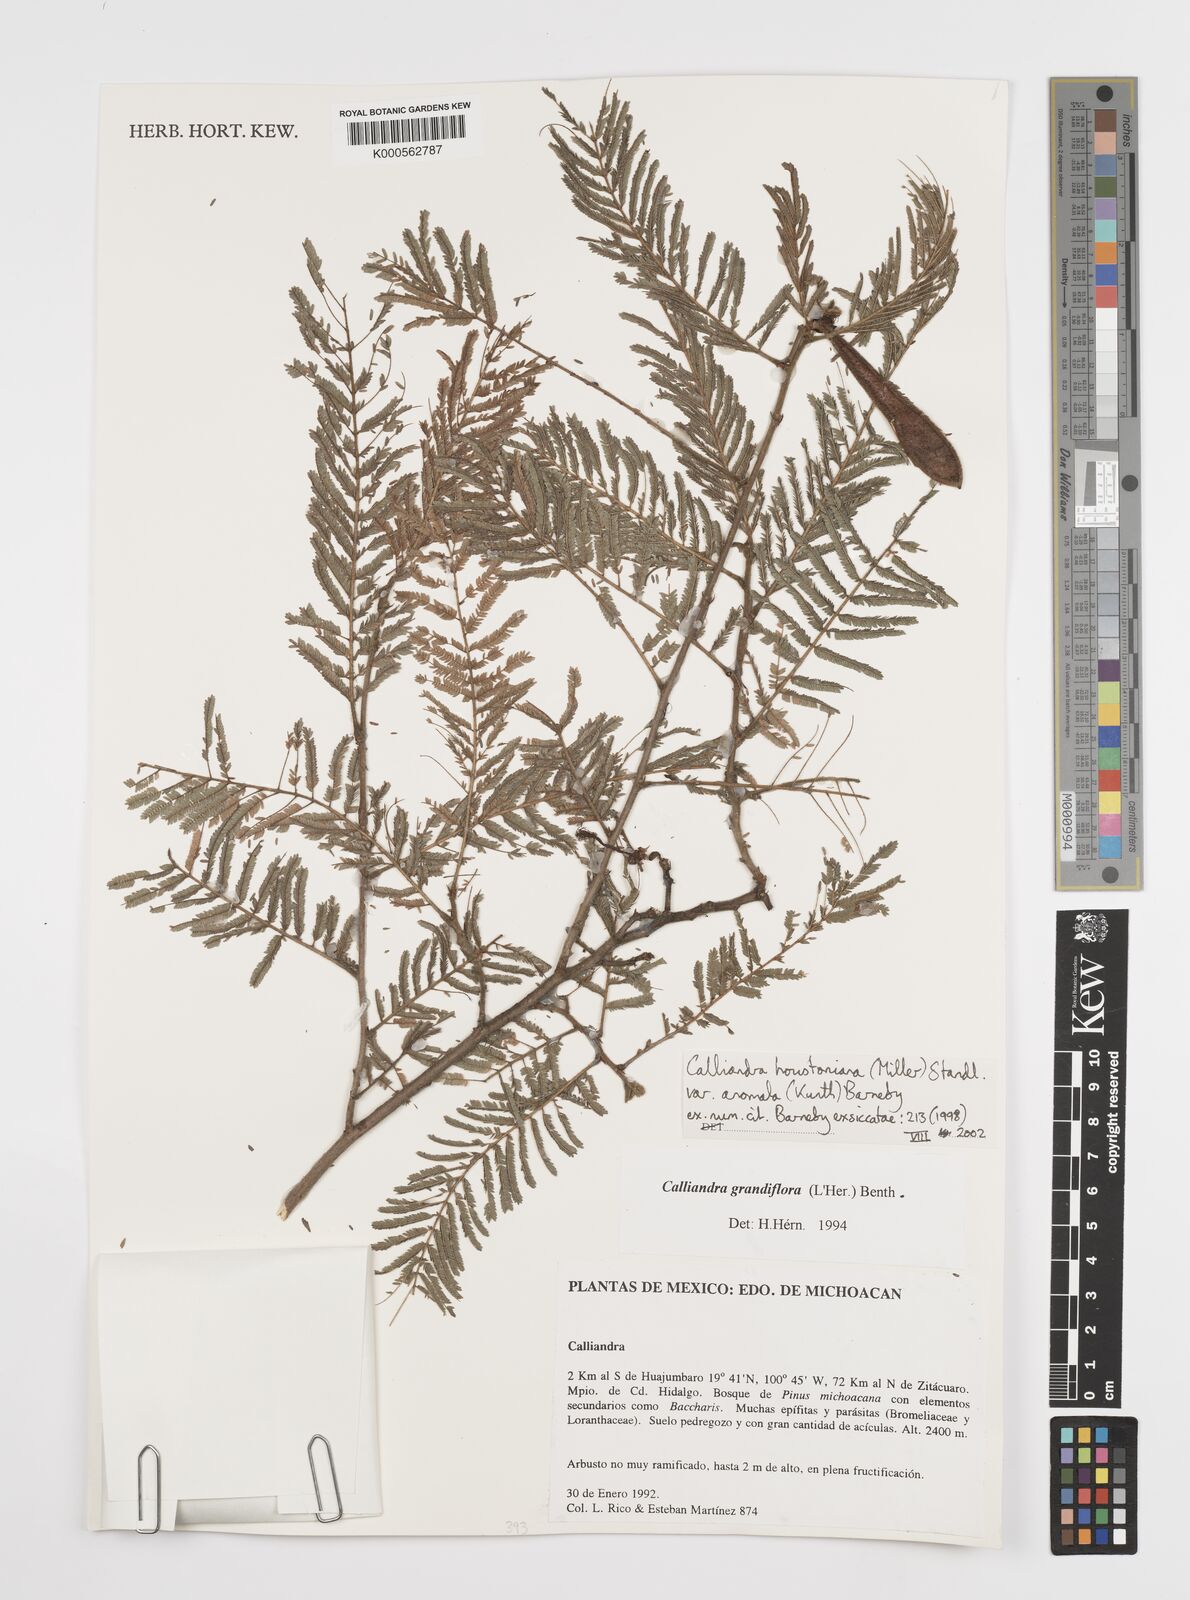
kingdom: Plantae
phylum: Tracheophyta
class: Magnoliopsida
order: Fabales
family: Fabaceae
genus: Calliandra
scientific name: Calliandra houstoniana
